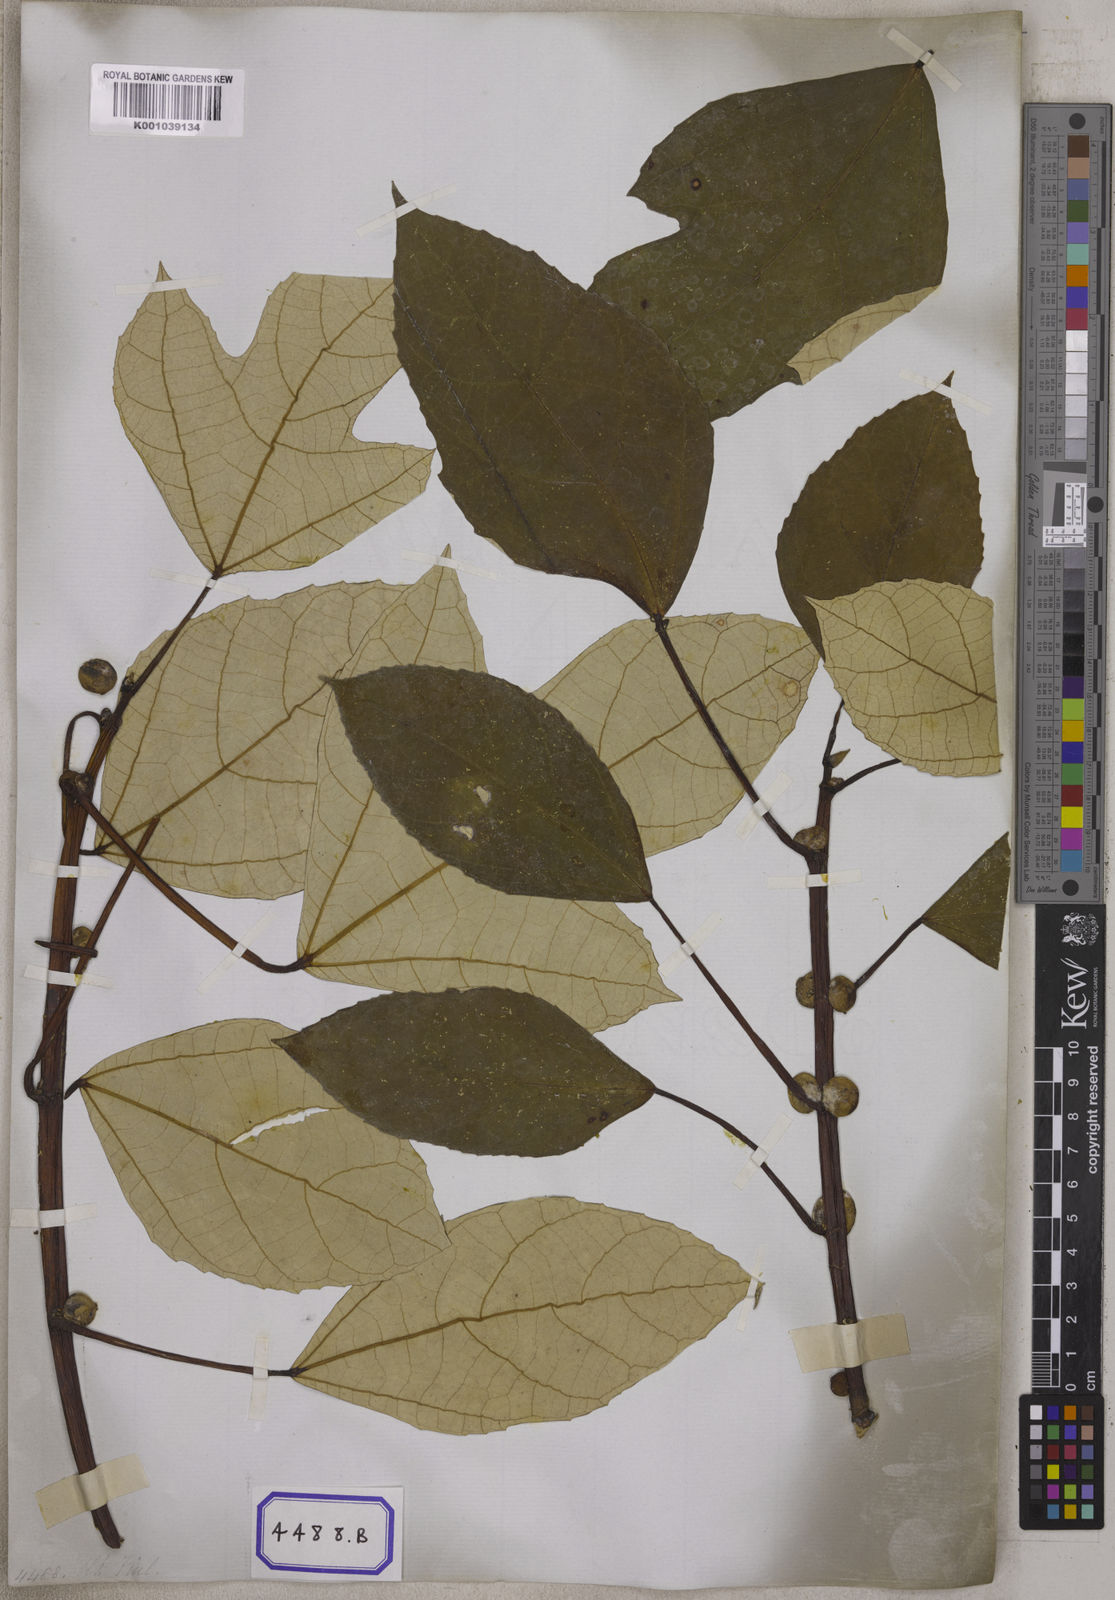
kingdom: Plantae
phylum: Tracheophyta
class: Magnoliopsida
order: Rosales
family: Moraceae
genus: Ficus
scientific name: Ficus
